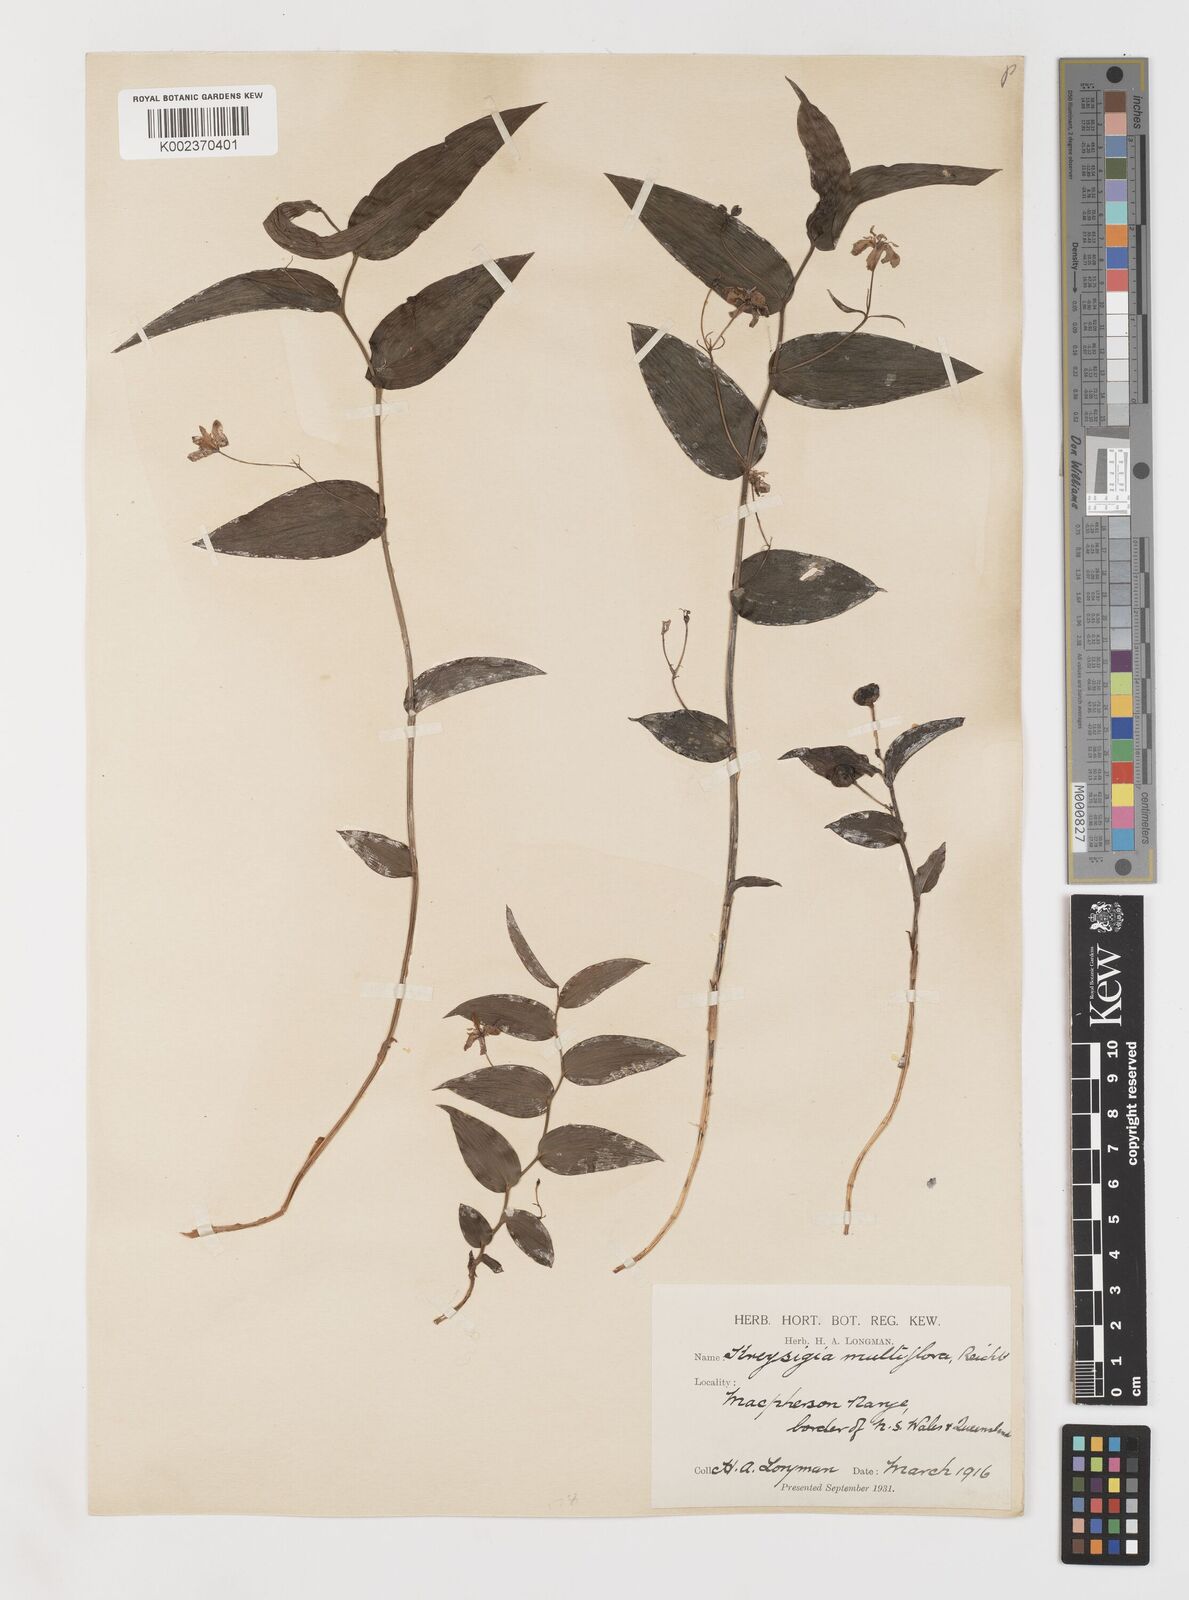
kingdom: Plantae
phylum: Tracheophyta
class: Liliopsida
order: Liliales
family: Colchicaceae
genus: Tripladenia
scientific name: Tripladenia
